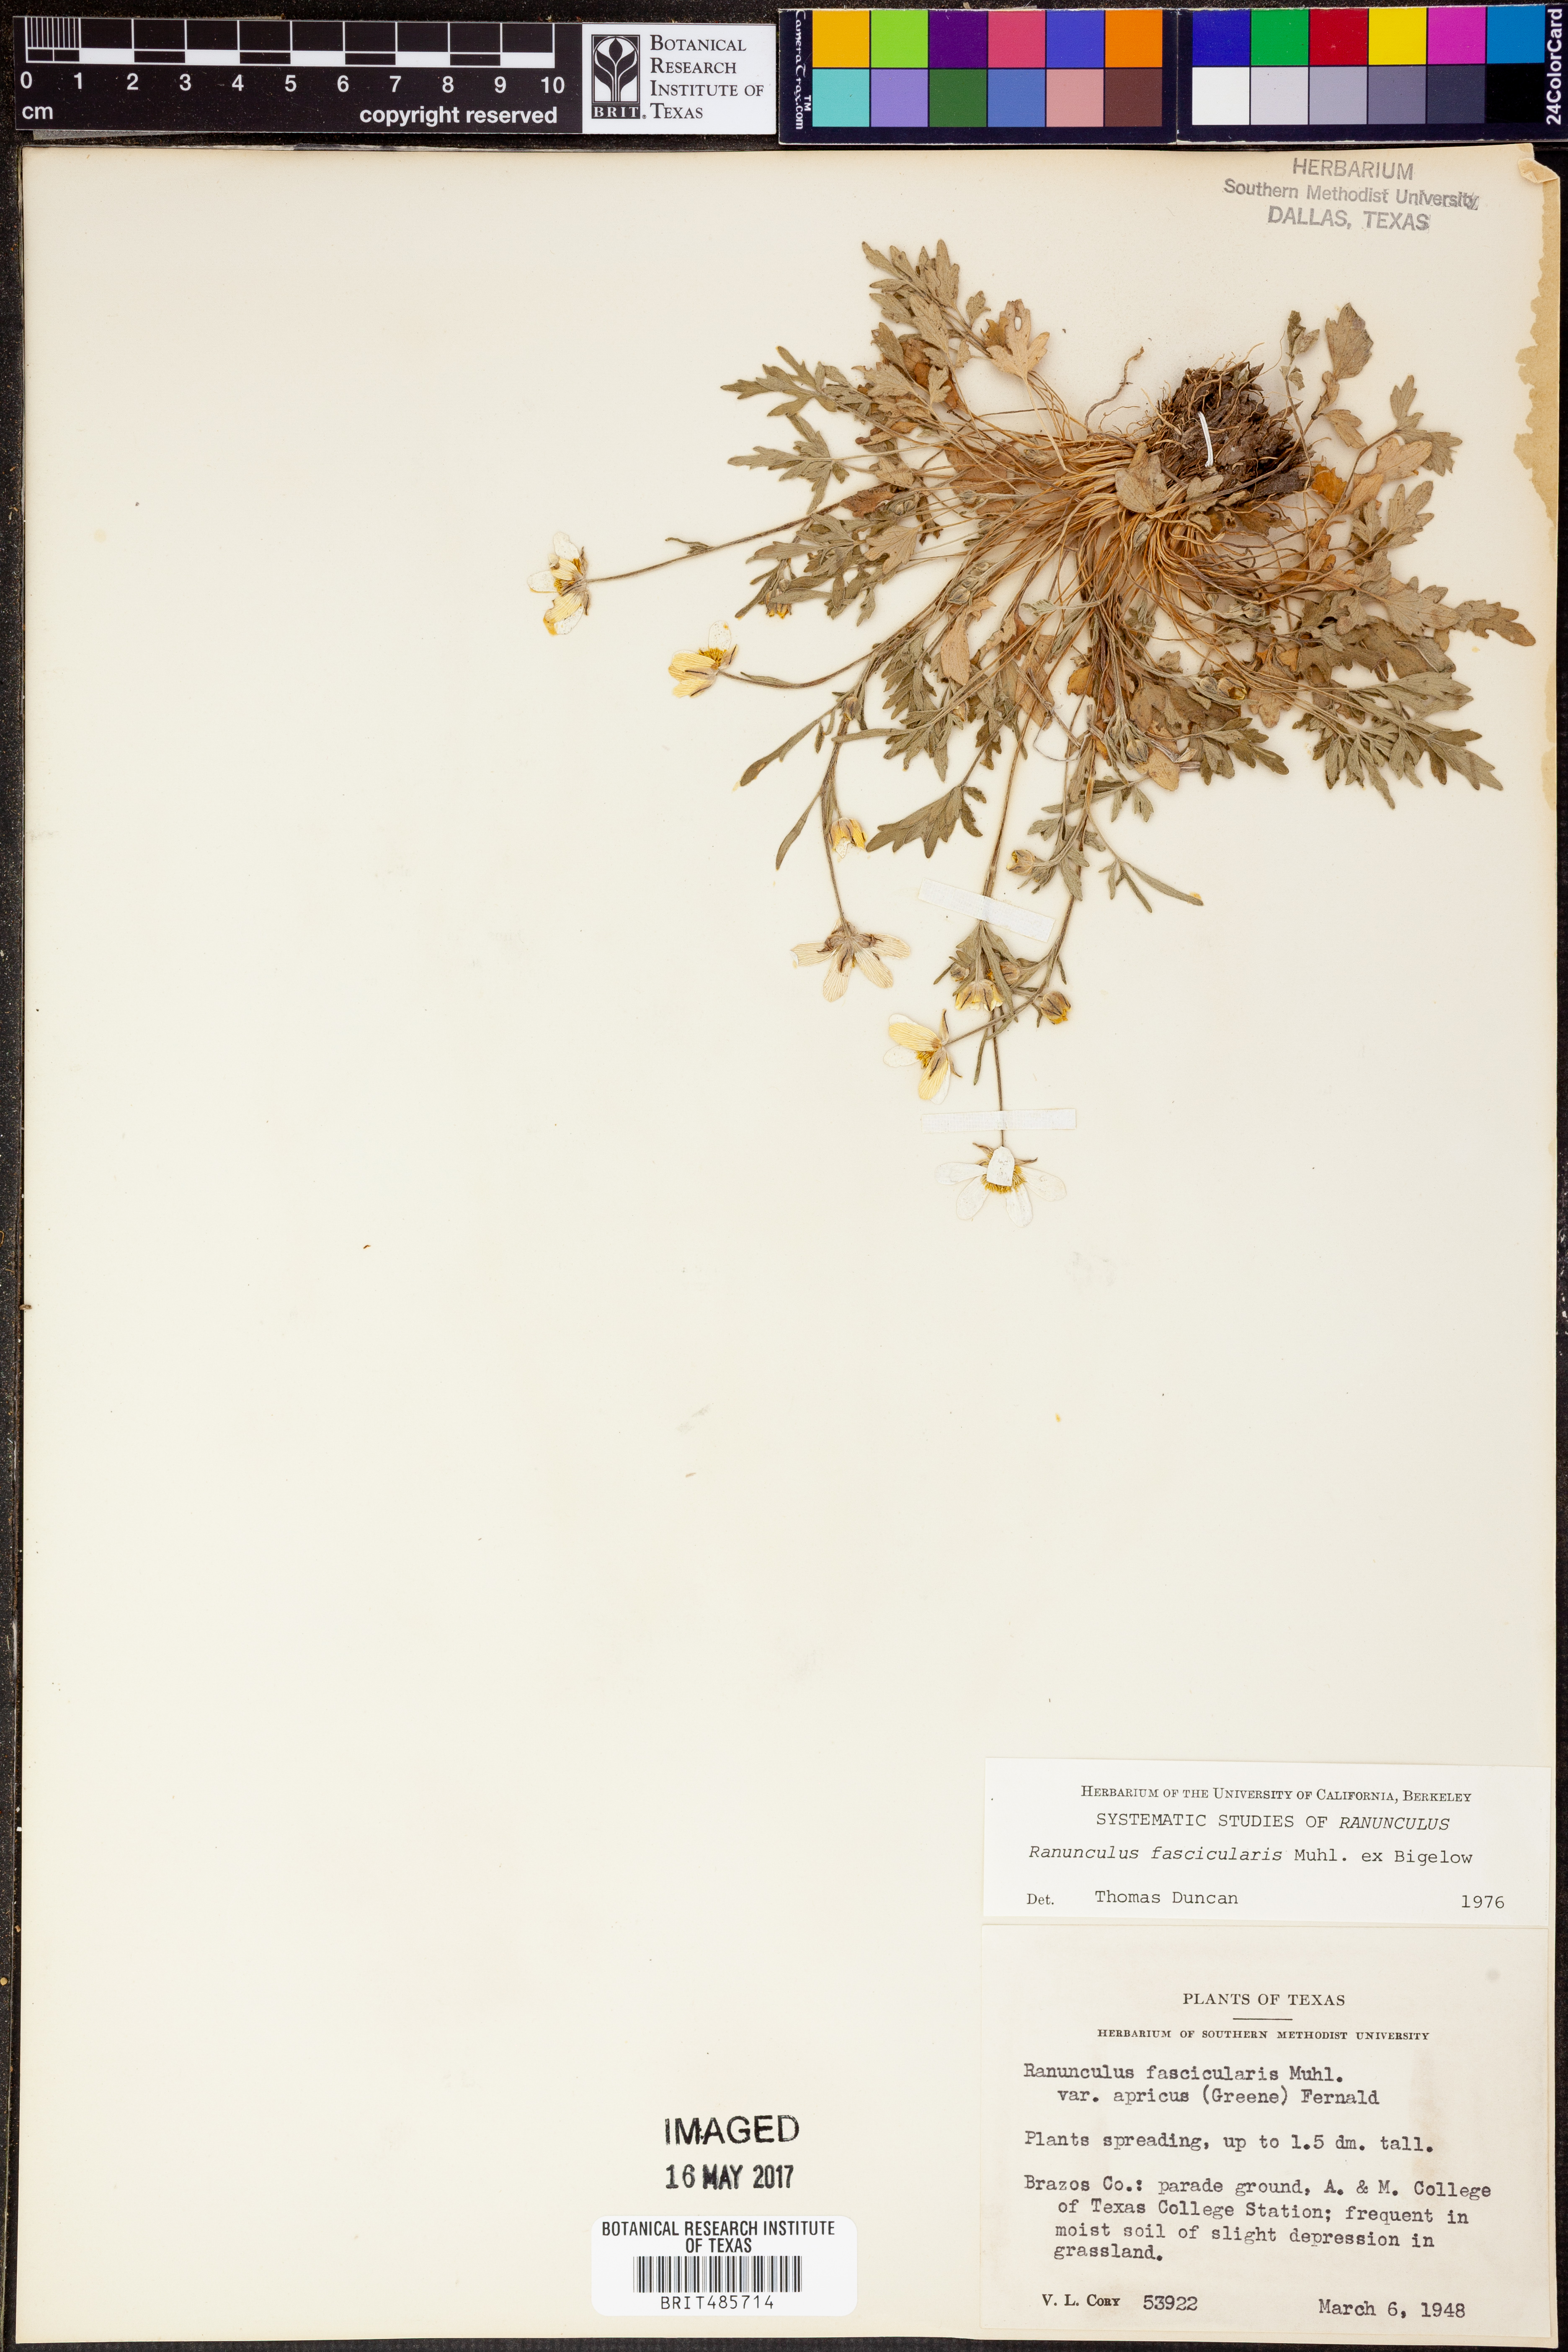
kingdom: Plantae
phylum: Tracheophyta
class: Magnoliopsida
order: Ranunculales
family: Ranunculaceae
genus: Ranunculus
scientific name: Ranunculus fascicularis
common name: Early buttercup
